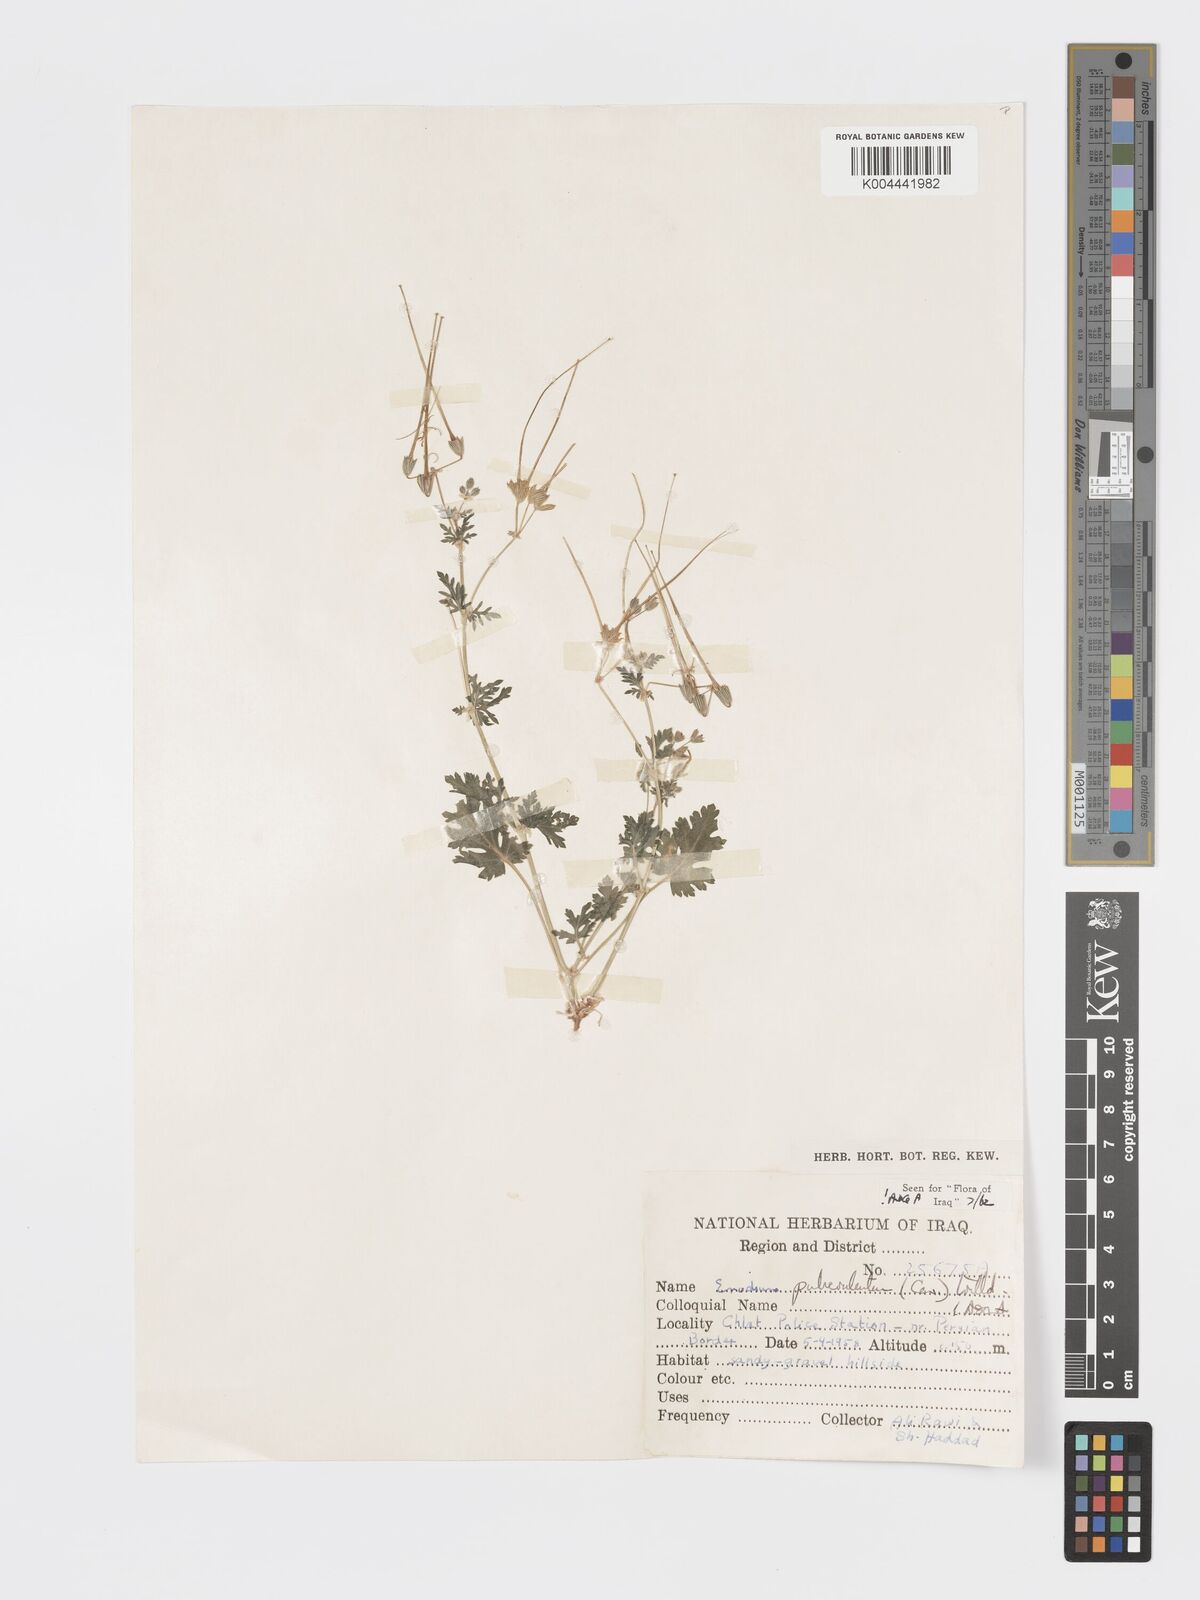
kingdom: Plantae
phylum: Tracheophyta
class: Magnoliopsida
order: Geraniales
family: Geraniaceae
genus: Erodium
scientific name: Erodium laciniatum
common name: Cutleaf stork's bill
